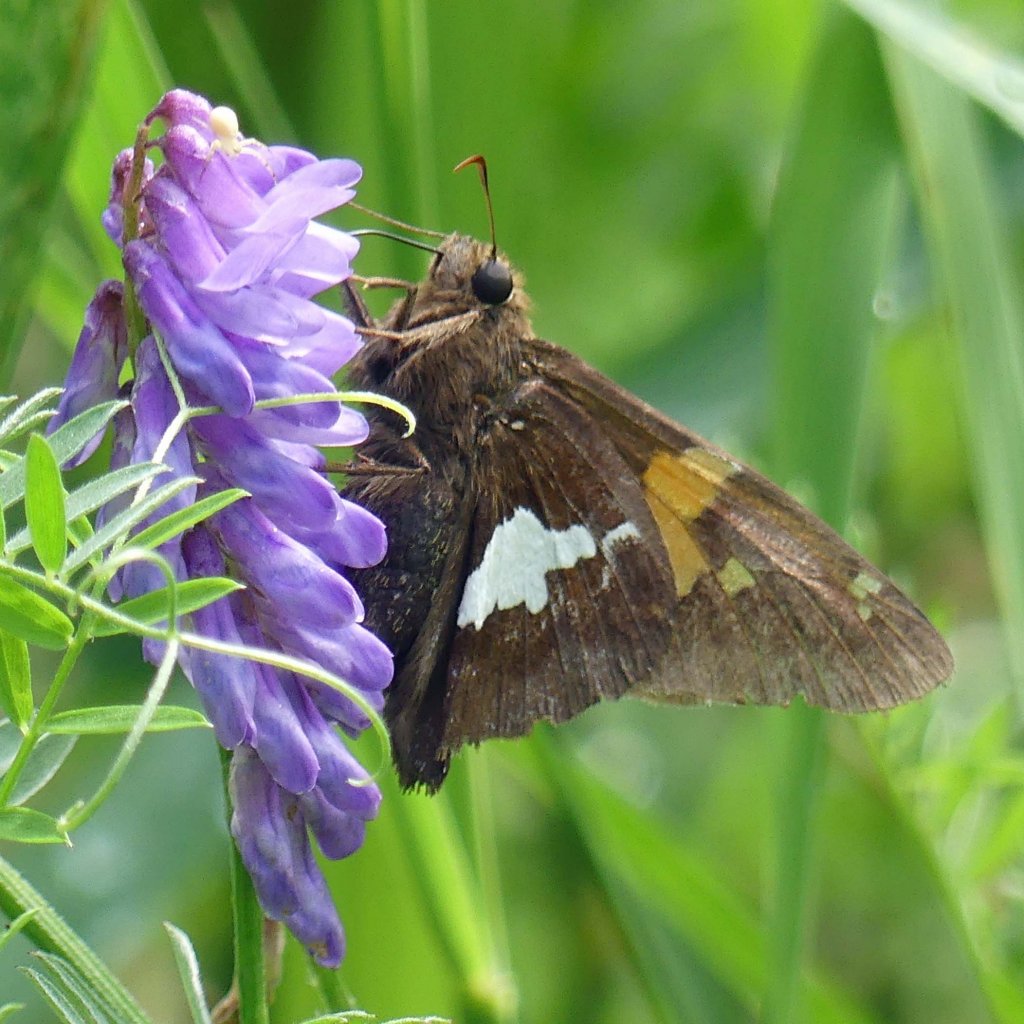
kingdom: Animalia
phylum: Arthropoda
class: Insecta
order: Lepidoptera
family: Hesperiidae
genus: Epargyreus
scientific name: Epargyreus clarus
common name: Silver-spotted Skipper
